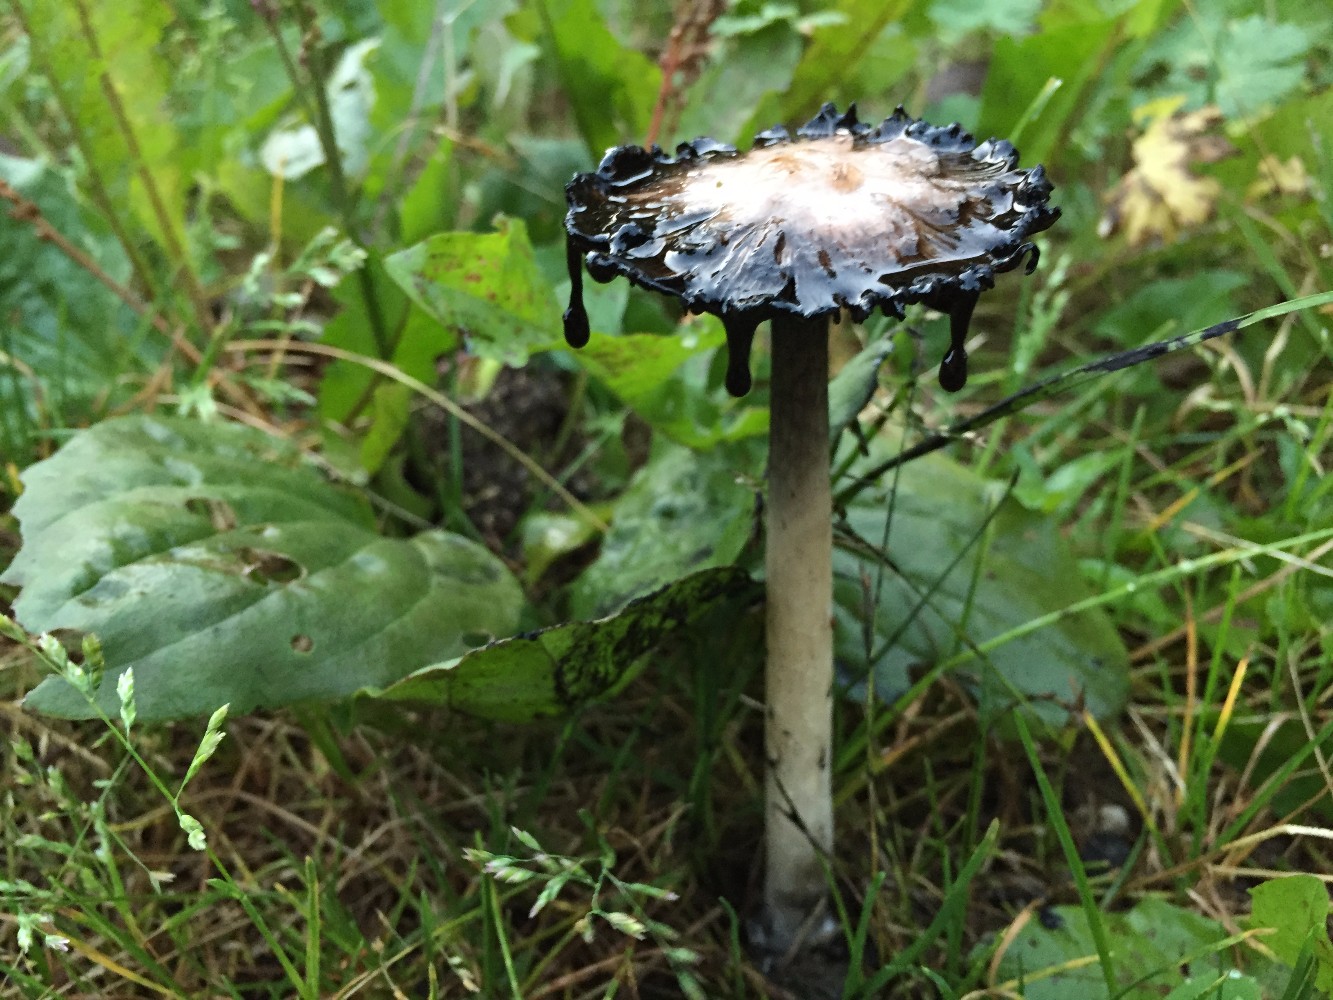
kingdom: Fungi
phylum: Basidiomycota
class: Agaricomycetes
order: Agaricales
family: Agaricaceae
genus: Coprinus
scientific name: Coprinus comatus
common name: stor parykhat
